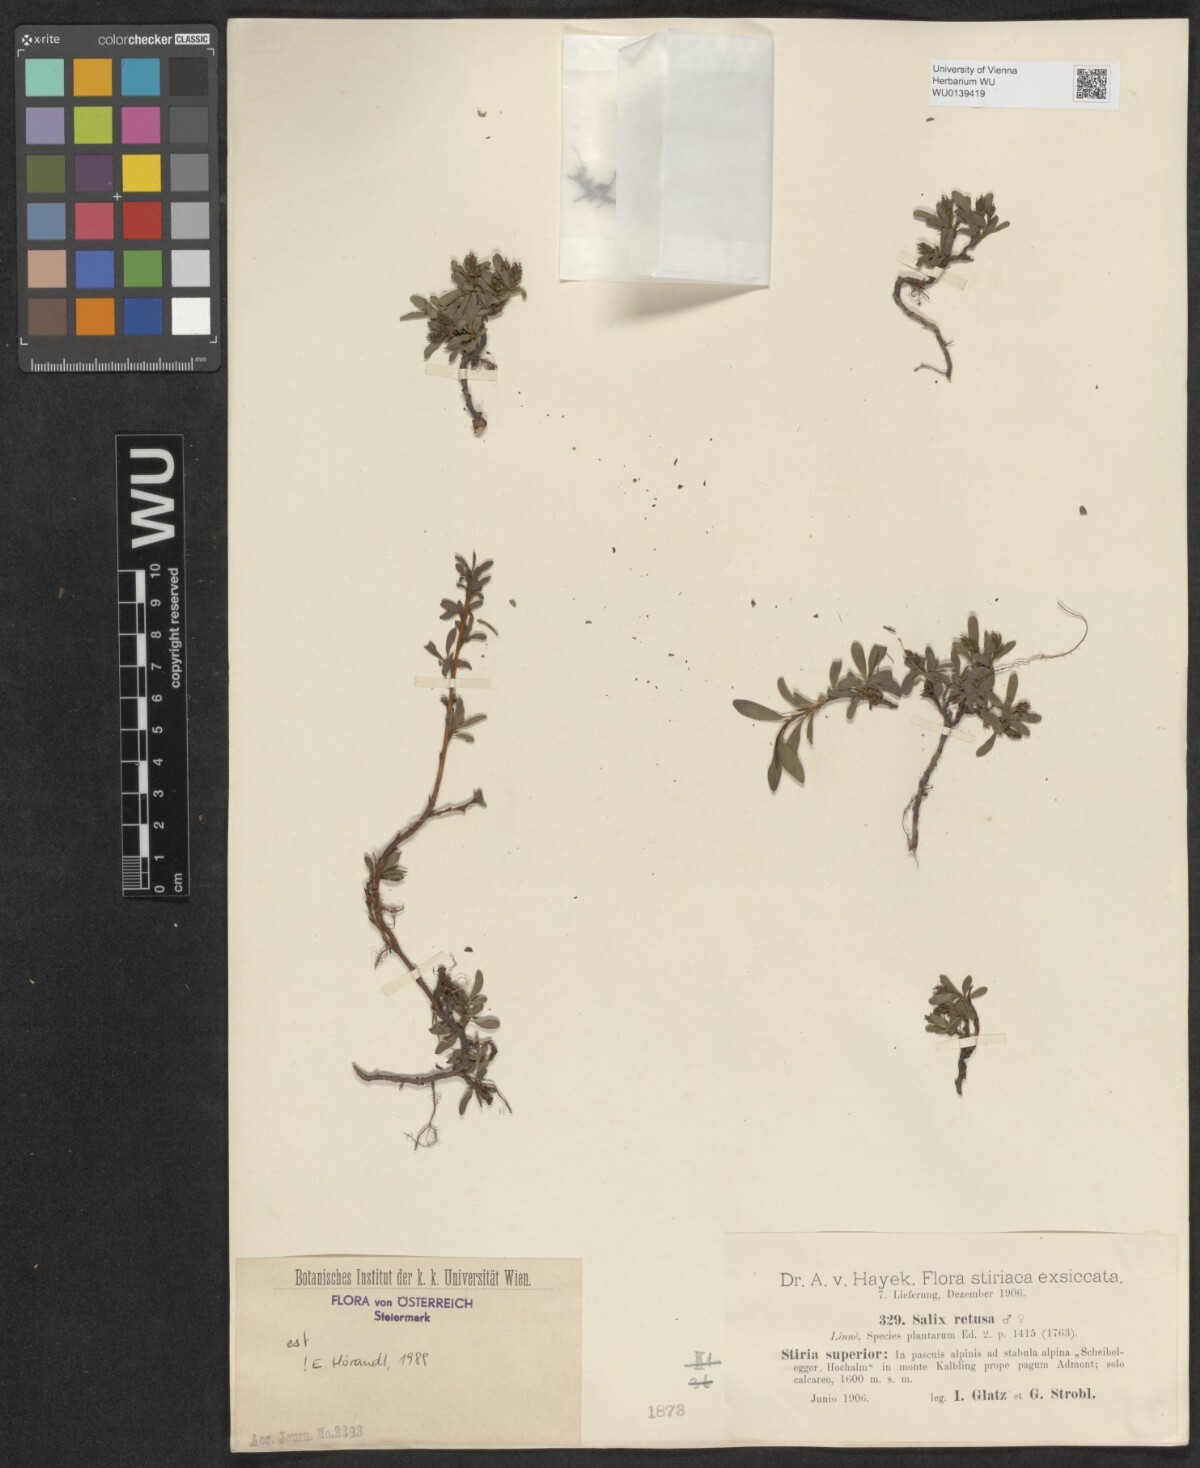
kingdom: Plantae
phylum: Tracheophyta
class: Magnoliopsida
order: Malpighiales
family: Salicaceae
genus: Salix
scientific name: Salix retusa
